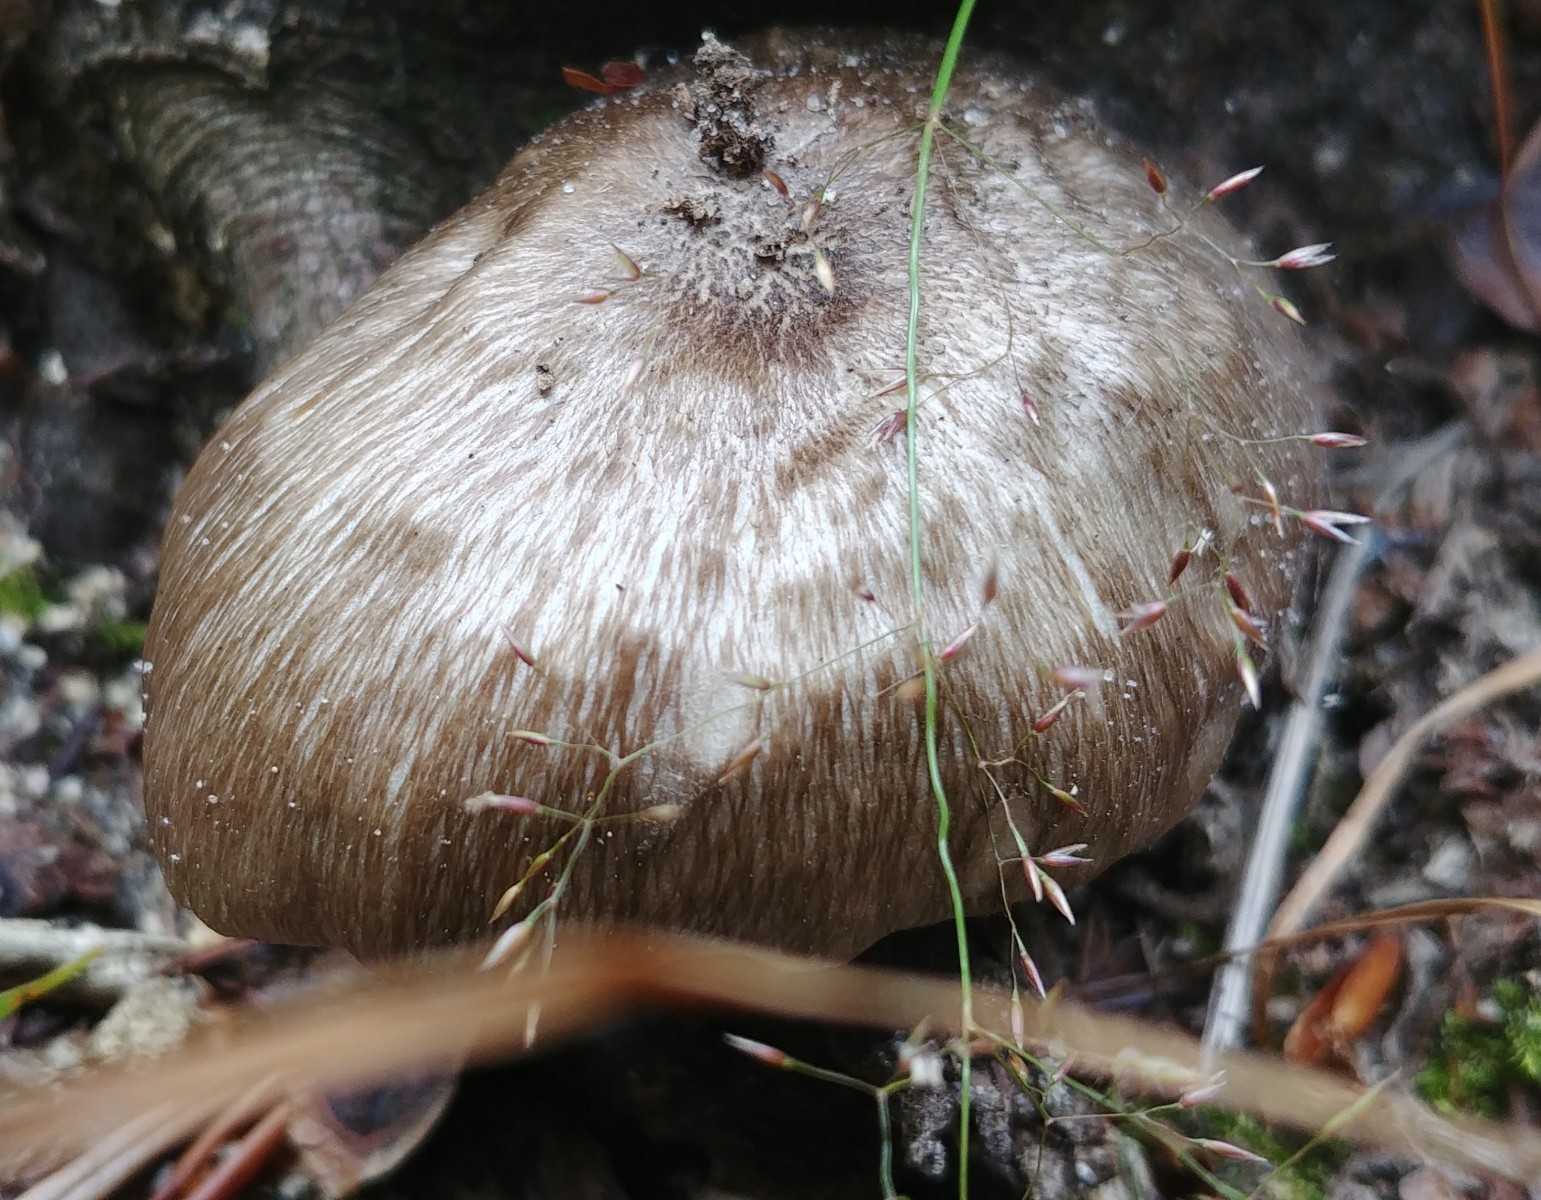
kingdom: Fungi
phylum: Basidiomycota
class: Agaricomycetes
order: Agaricales
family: Pluteaceae
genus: Pluteus
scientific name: Pluteus cervinus
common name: sodfarvet skærmhat
